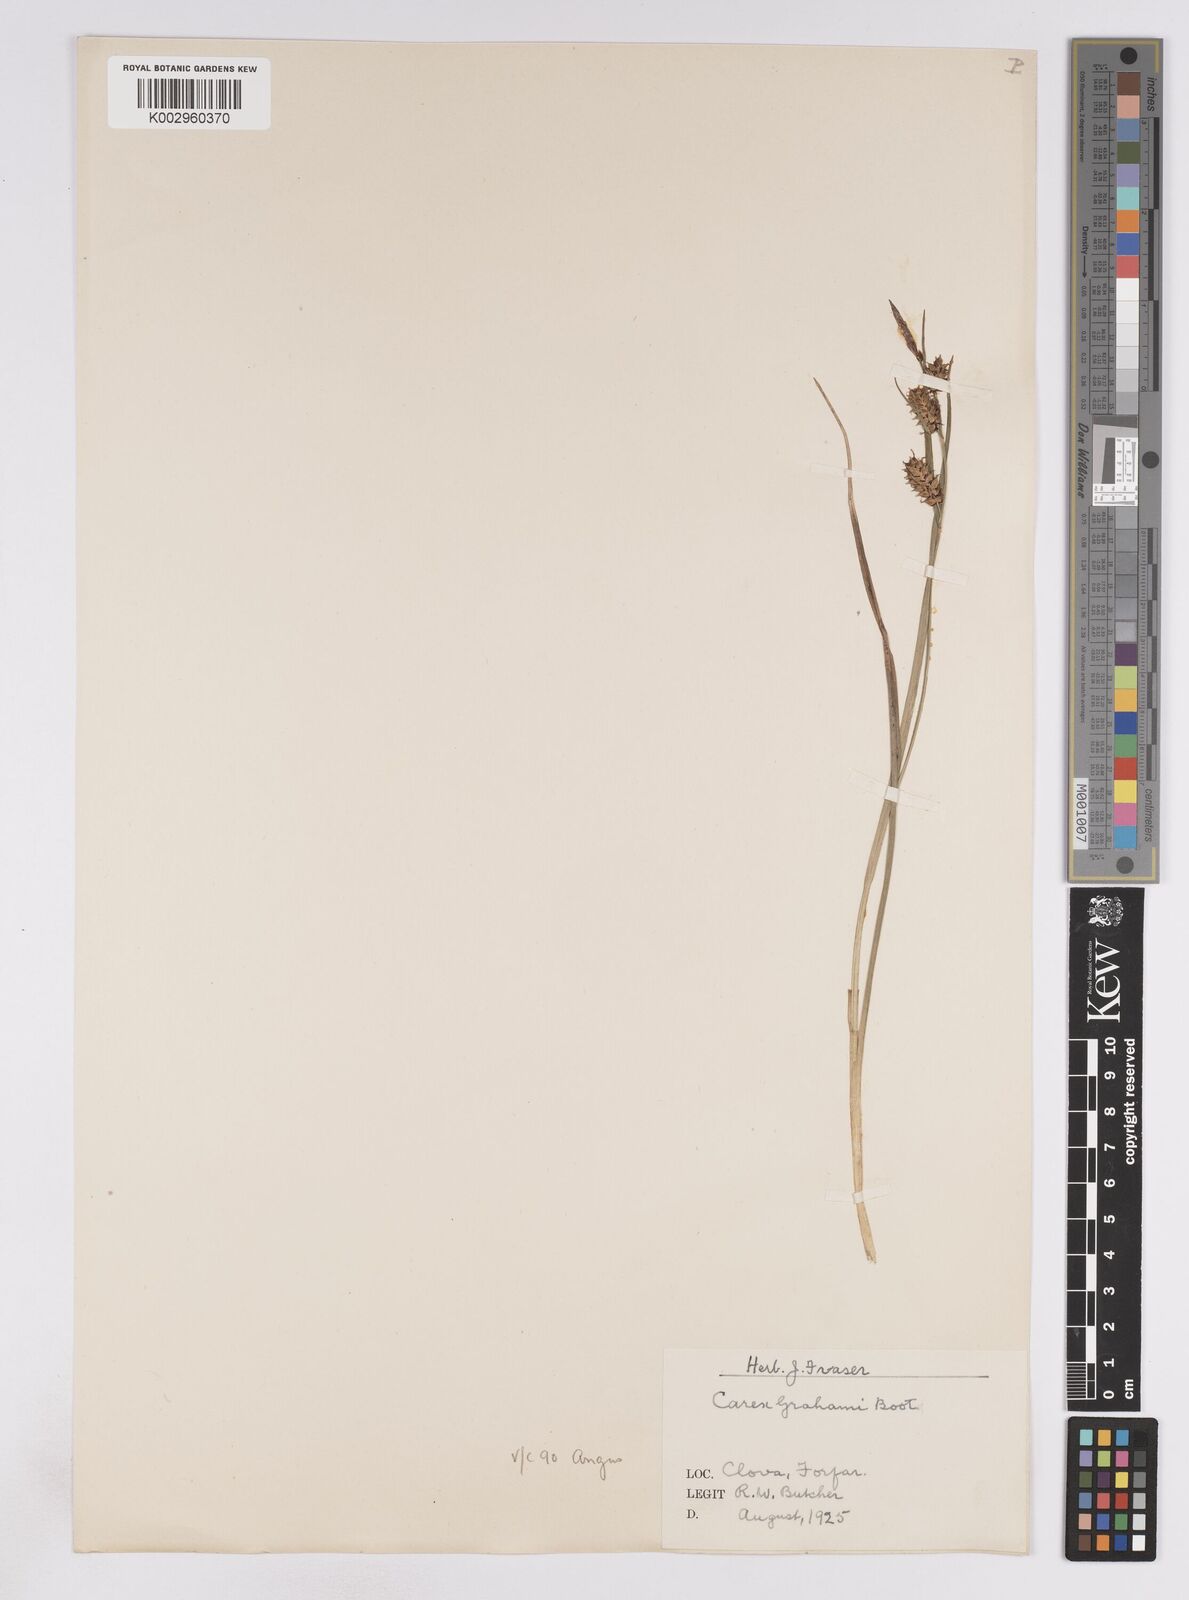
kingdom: Plantae
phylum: Tracheophyta
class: Liliopsida
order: Poales
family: Cyperaceae
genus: Carex
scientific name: Carex vesicaria
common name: Bladder-sedge
